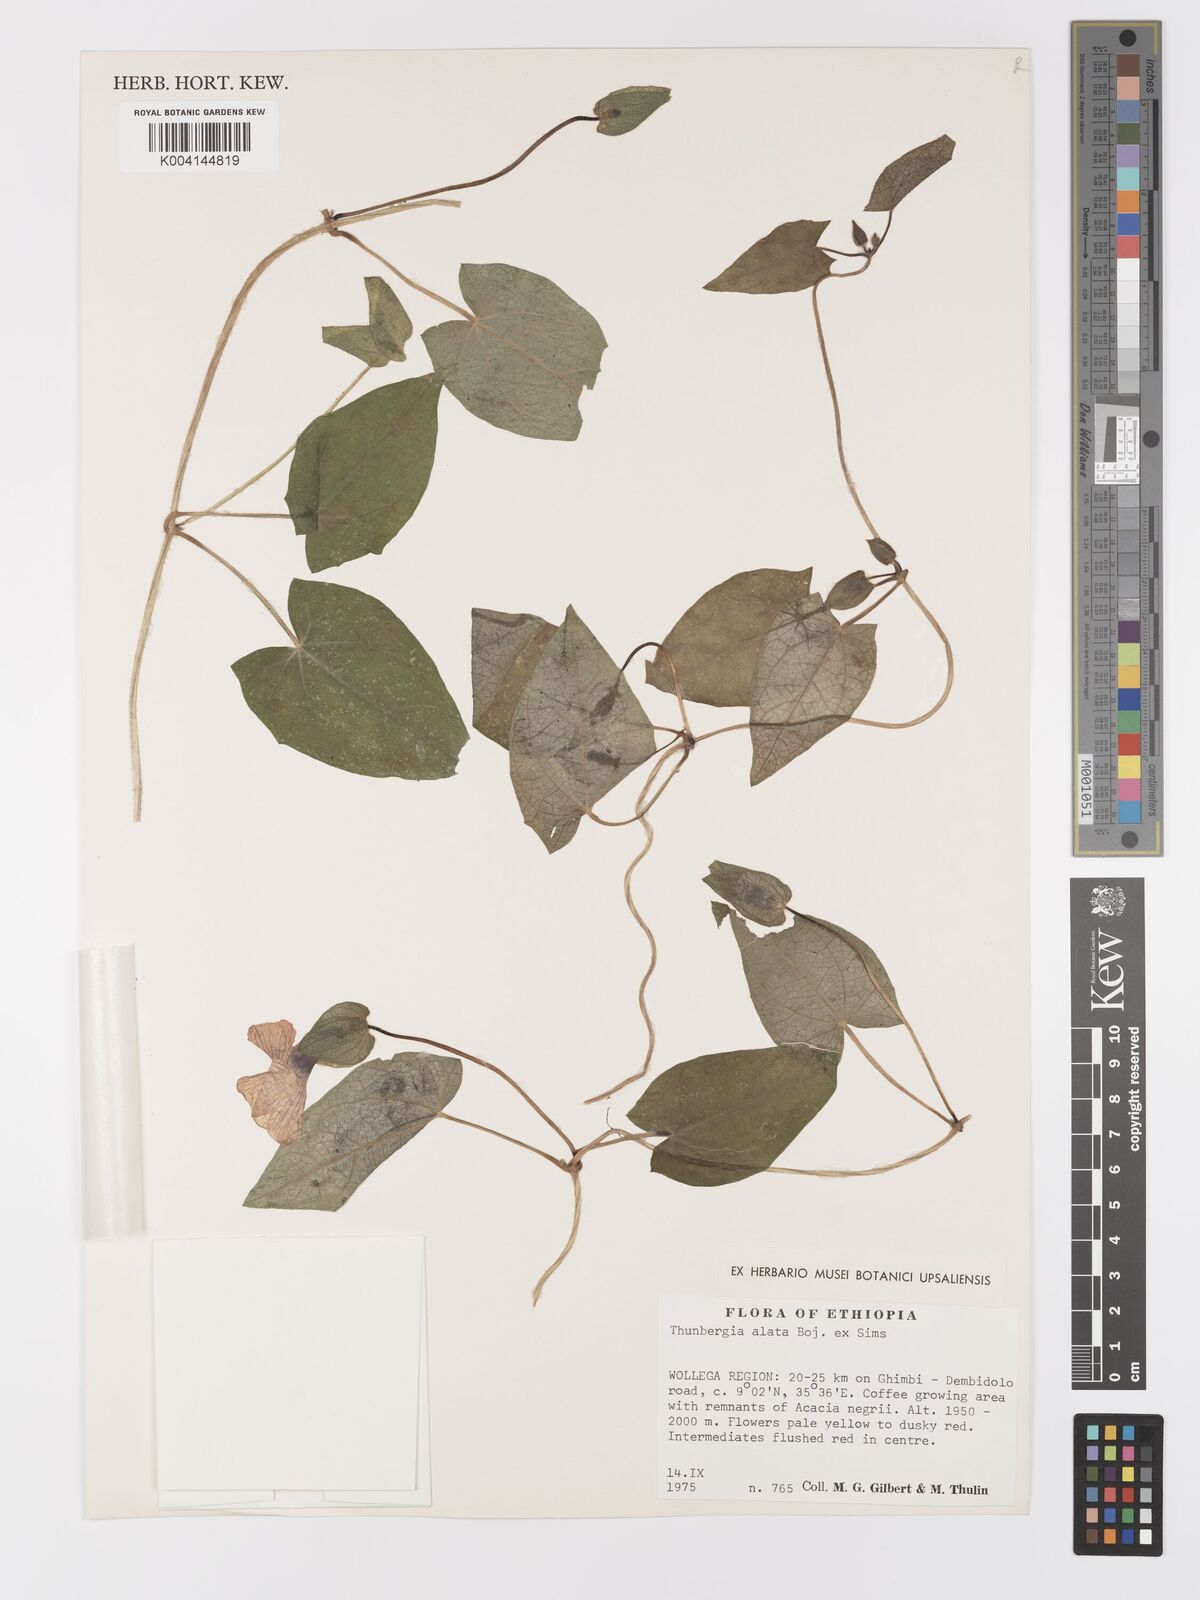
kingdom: Plantae
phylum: Tracheophyta
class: Magnoliopsida
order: Lamiales
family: Acanthaceae
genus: Thunbergia
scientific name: Thunbergia alata
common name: Blackeyed susan vine
